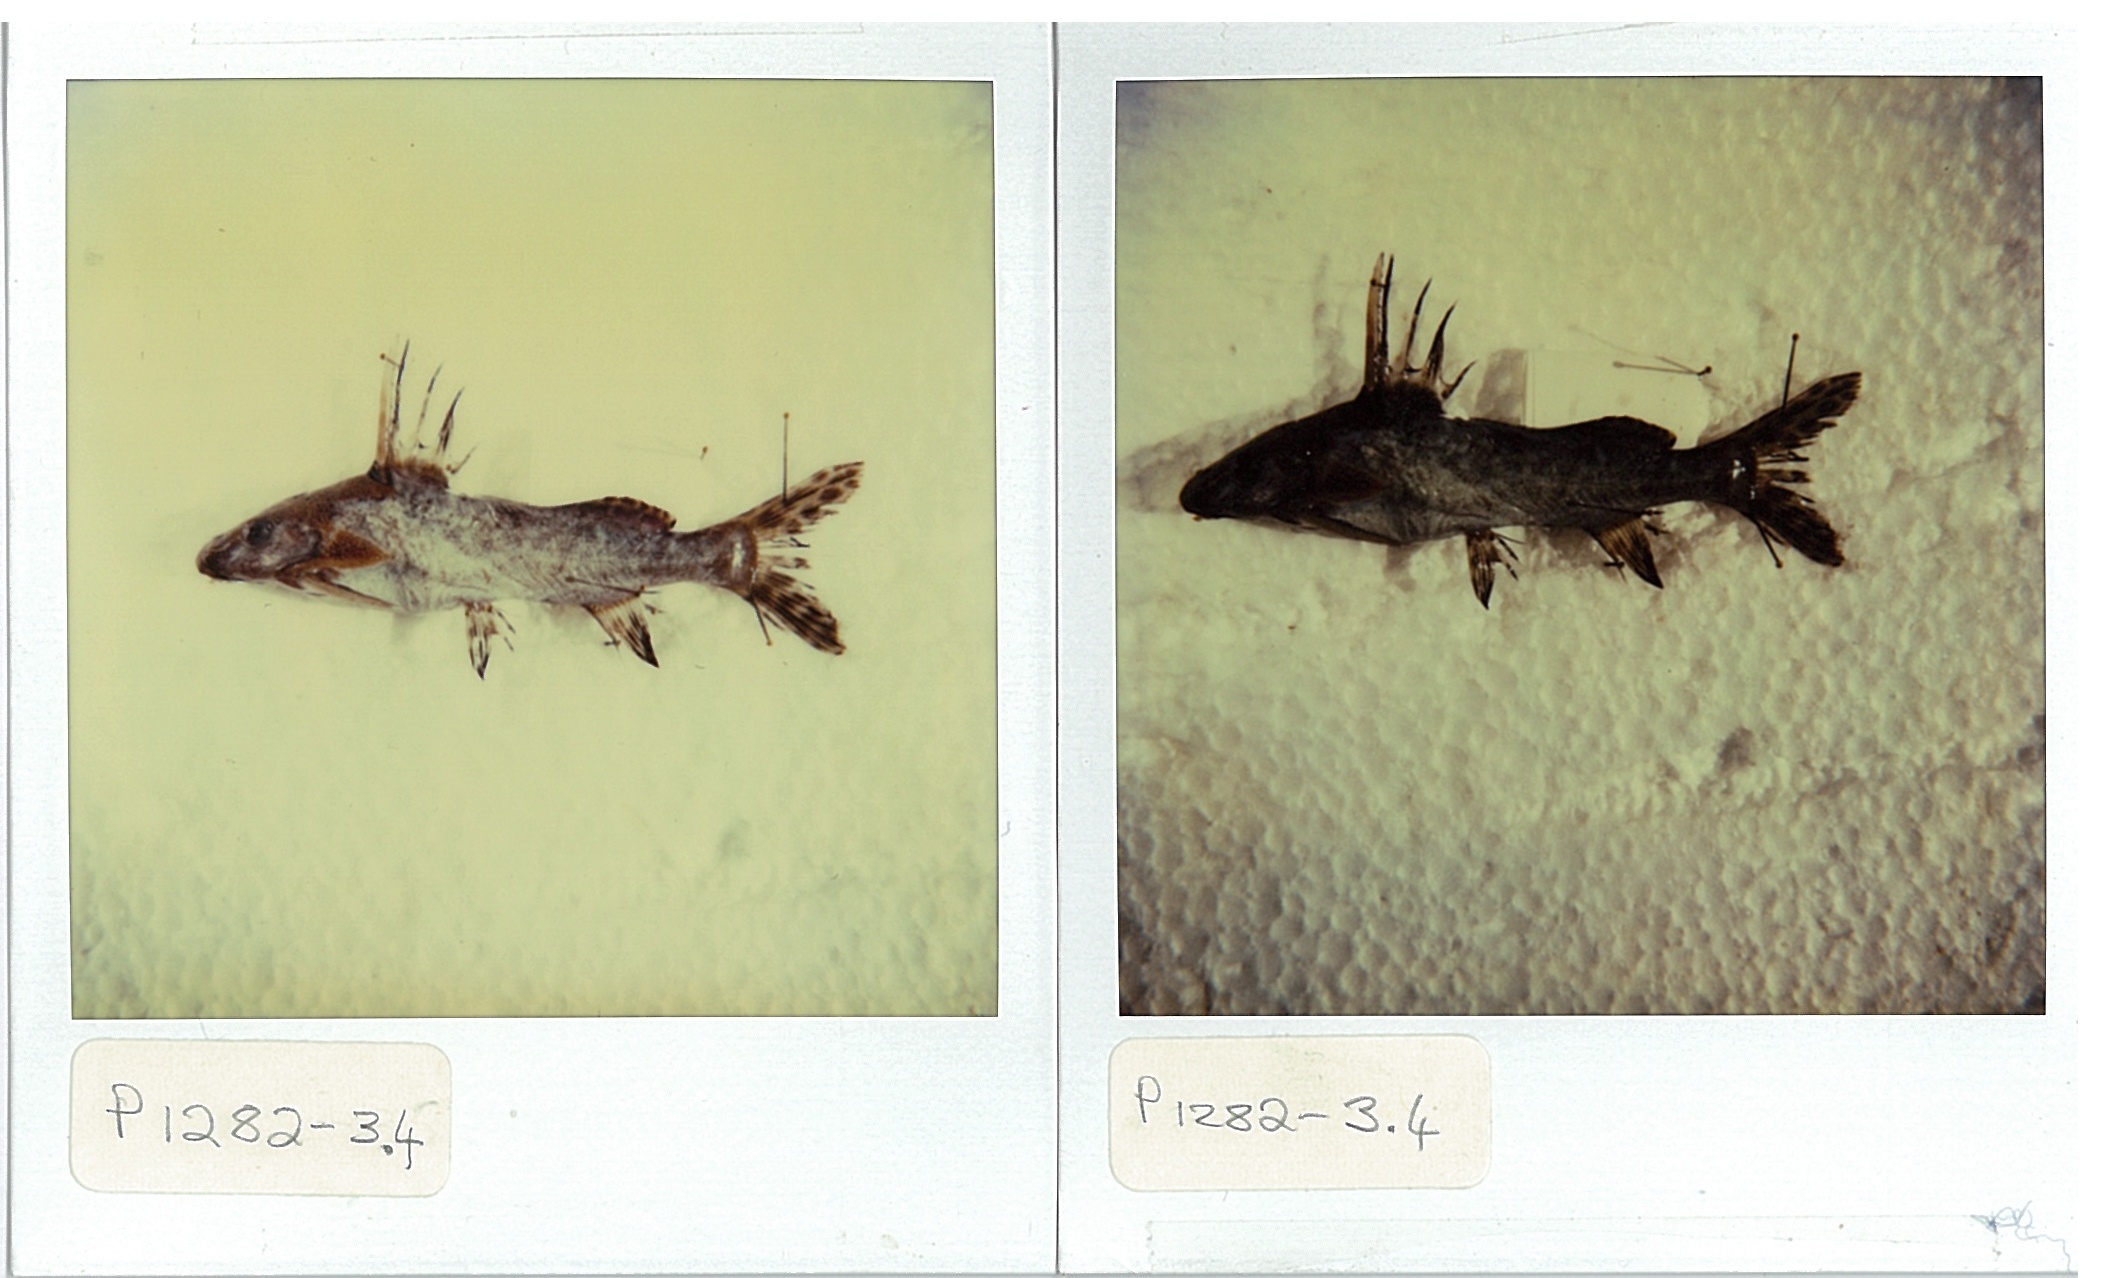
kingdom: Animalia
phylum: Chordata
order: Siluriformes
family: Mochokidae
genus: Synodontis
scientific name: Synodontis macrostigma
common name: Largespot squeaker
